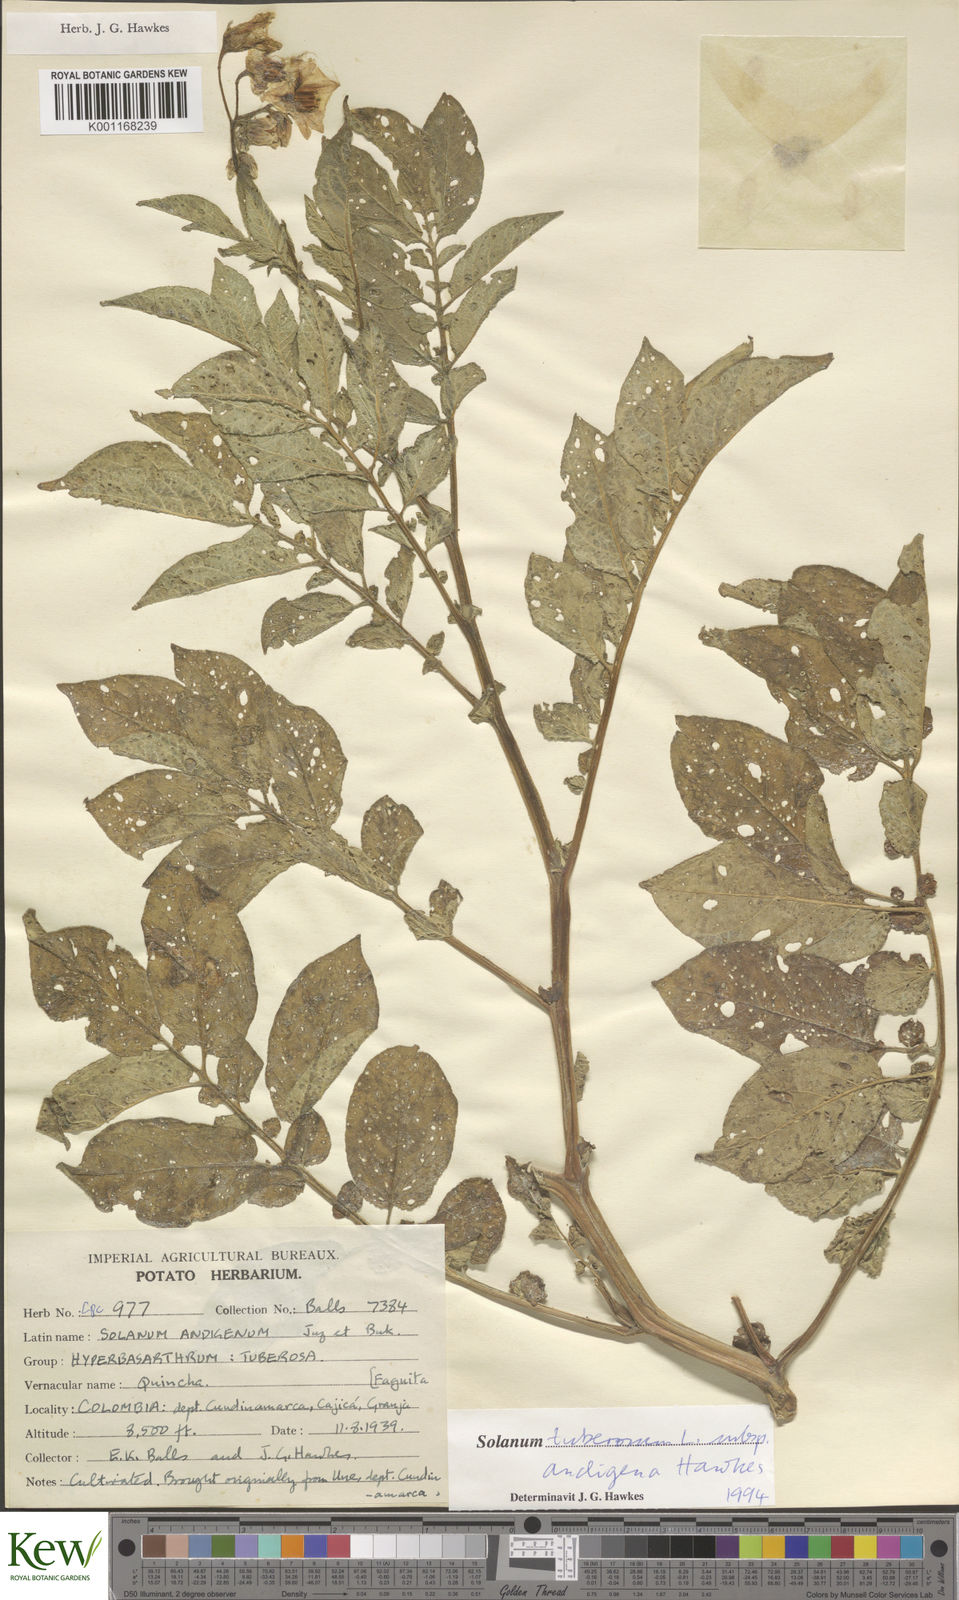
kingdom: Plantae
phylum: Tracheophyta
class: Magnoliopsida
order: Solanales
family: Solanaceae
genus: Solanum
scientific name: Solanum tuberosum
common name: Potato
